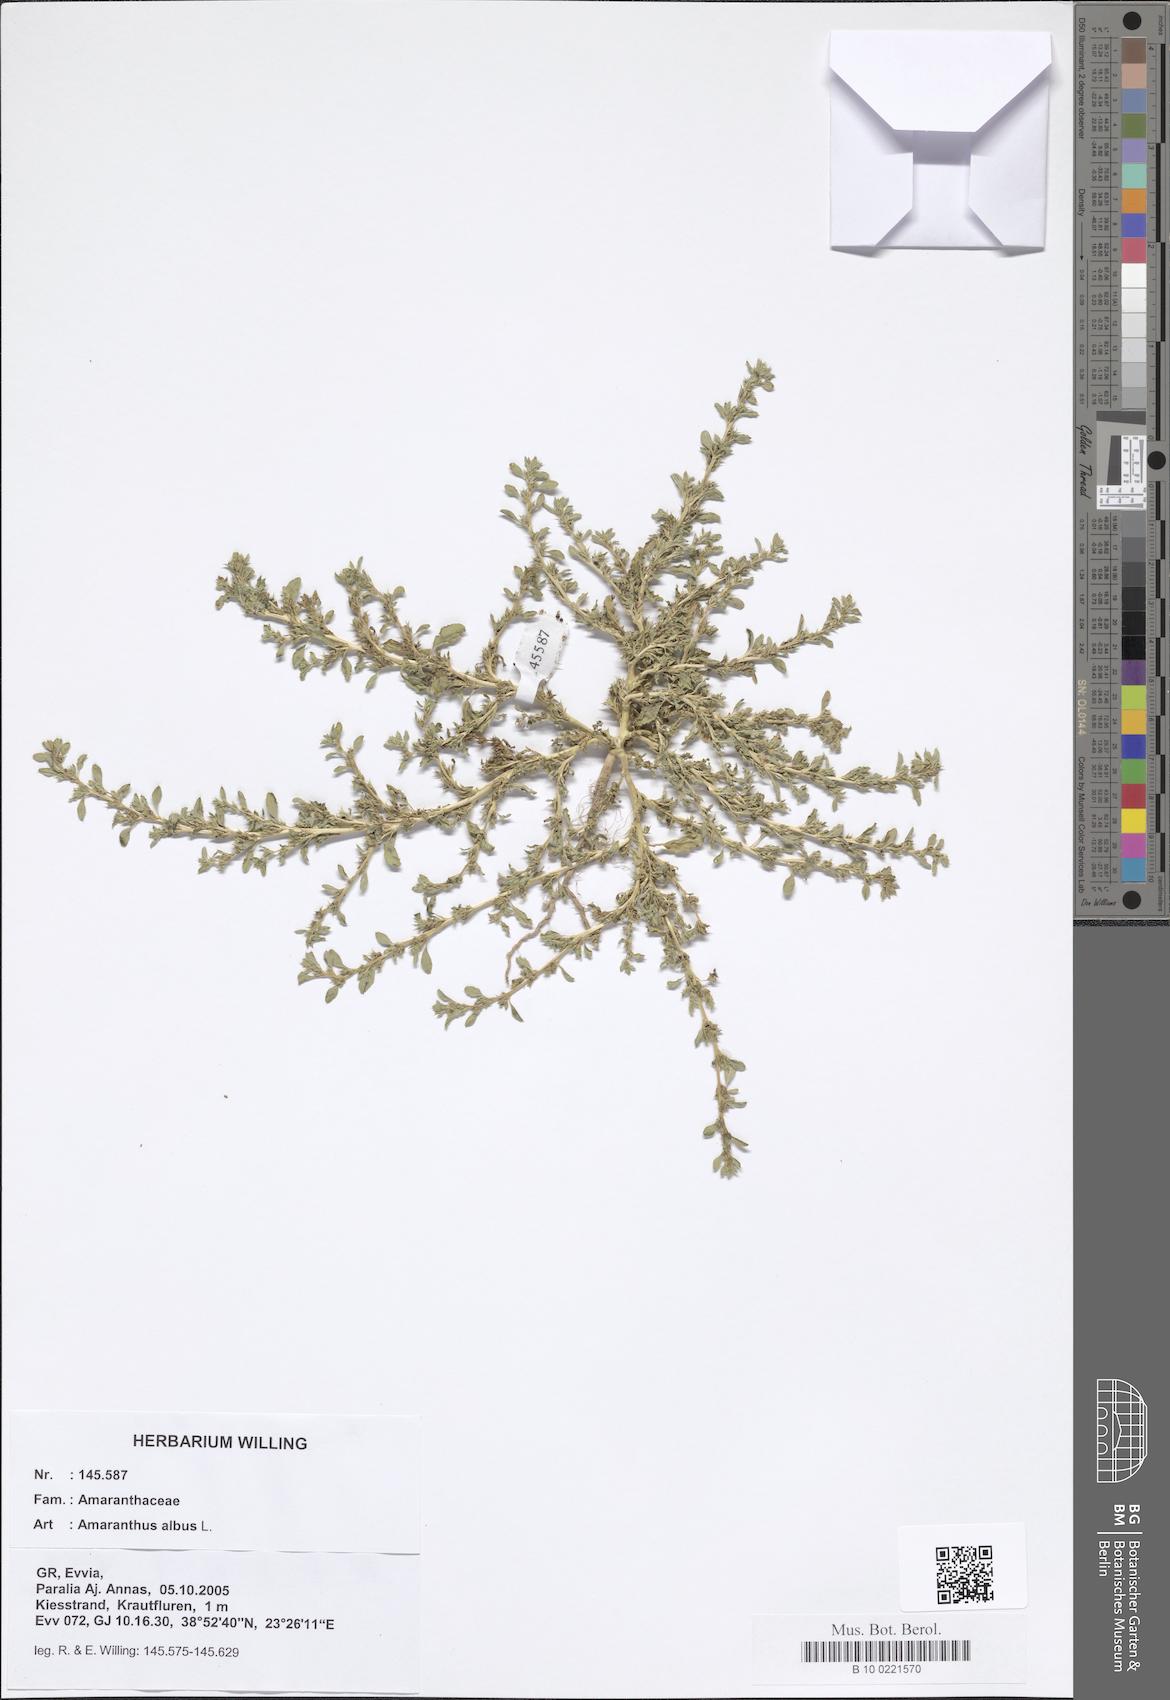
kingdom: Plantae
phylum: Tracheophyta
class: Magnoliopsida
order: Caryophyllales
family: Amaranthaceae
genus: Amaranthus
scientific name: Amaranthus albus
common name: White pigweed
